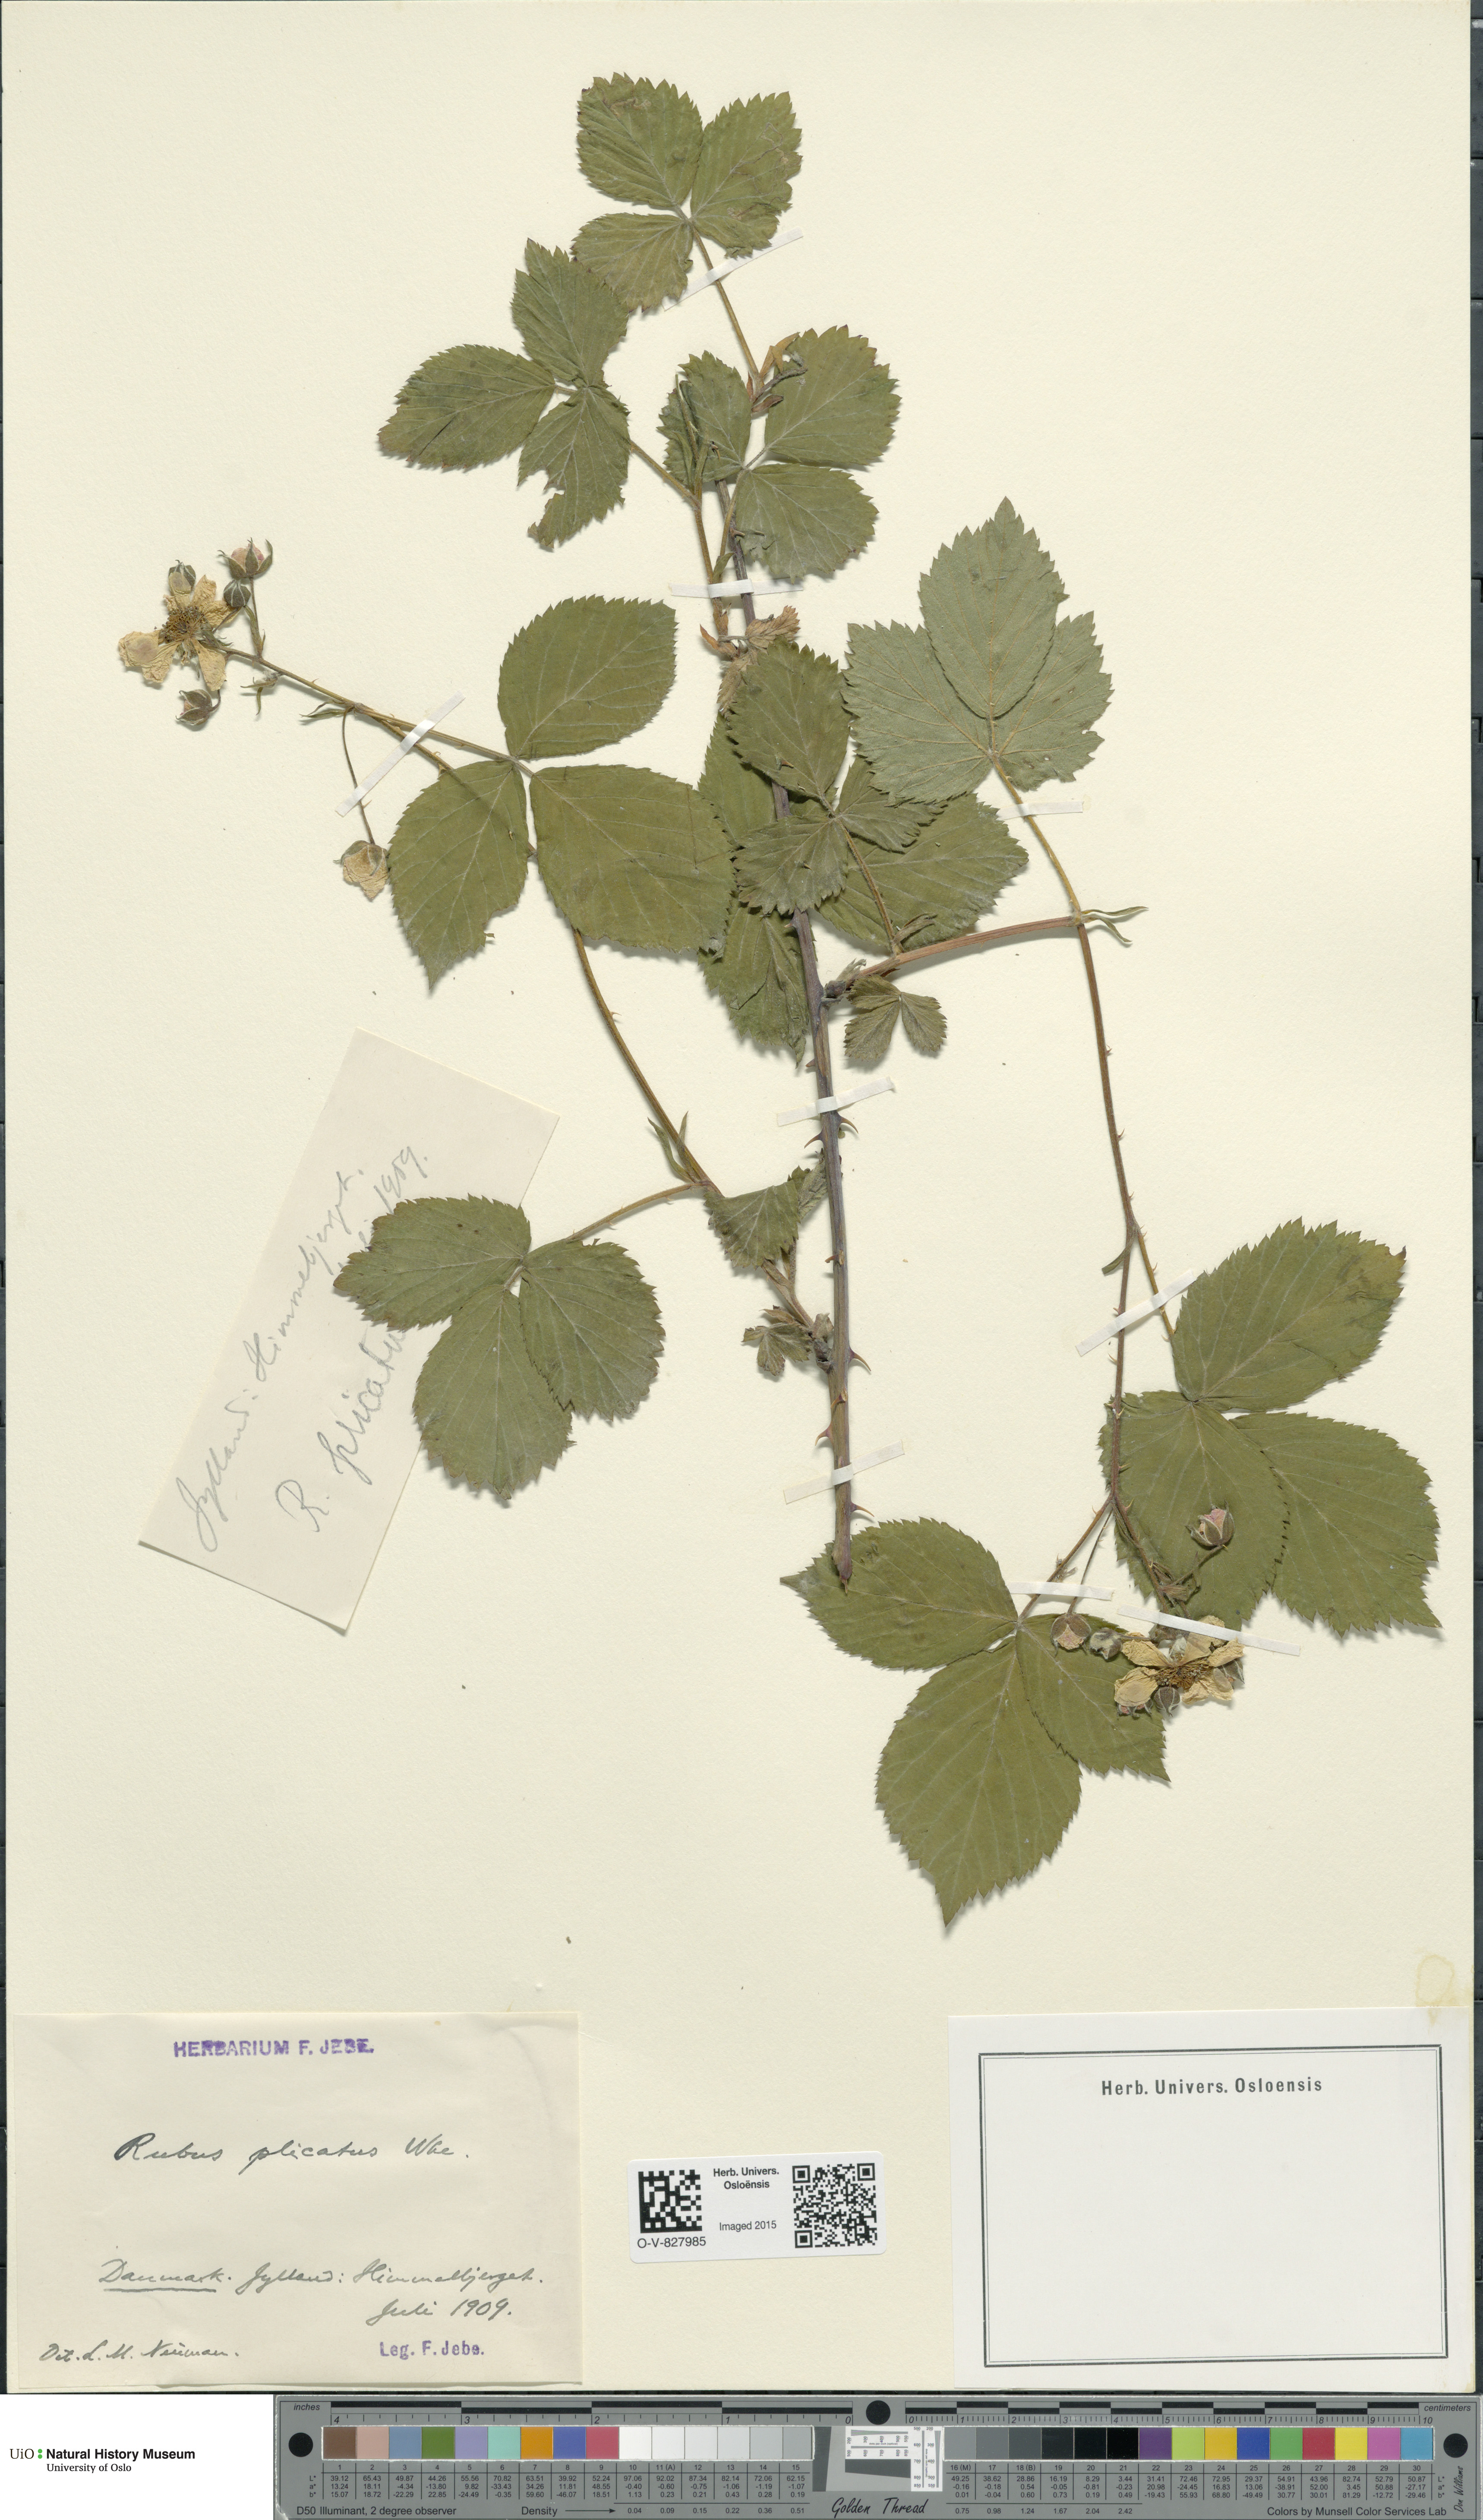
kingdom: Plantae
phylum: Tracheophyta
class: Magnoliopsida
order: Rosales
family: Rosaceae
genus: Rubus
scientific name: Rubus fruticosus
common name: Blackberry, bramble
